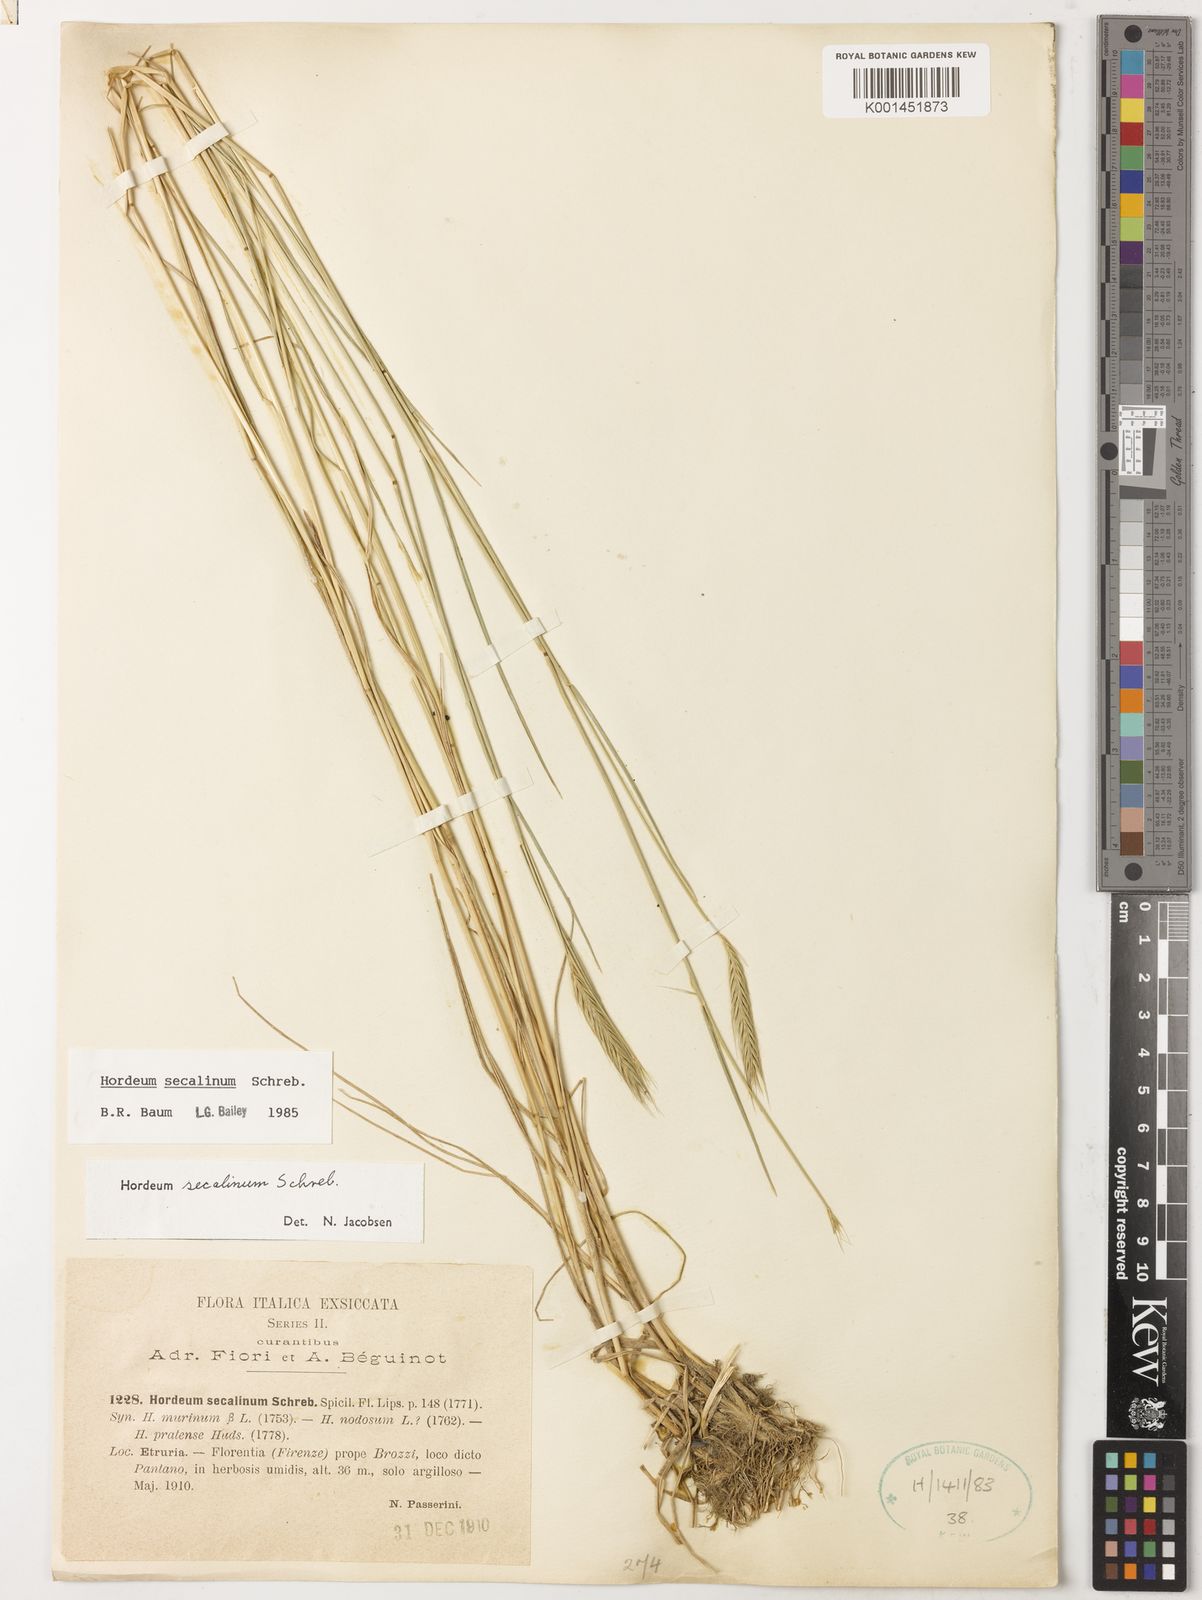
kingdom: Plantae
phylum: Tracheophyta
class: Liliopsida
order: Poales
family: Poaceae
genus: Hordeum
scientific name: Hordeum secalinum
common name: Meadow barley
